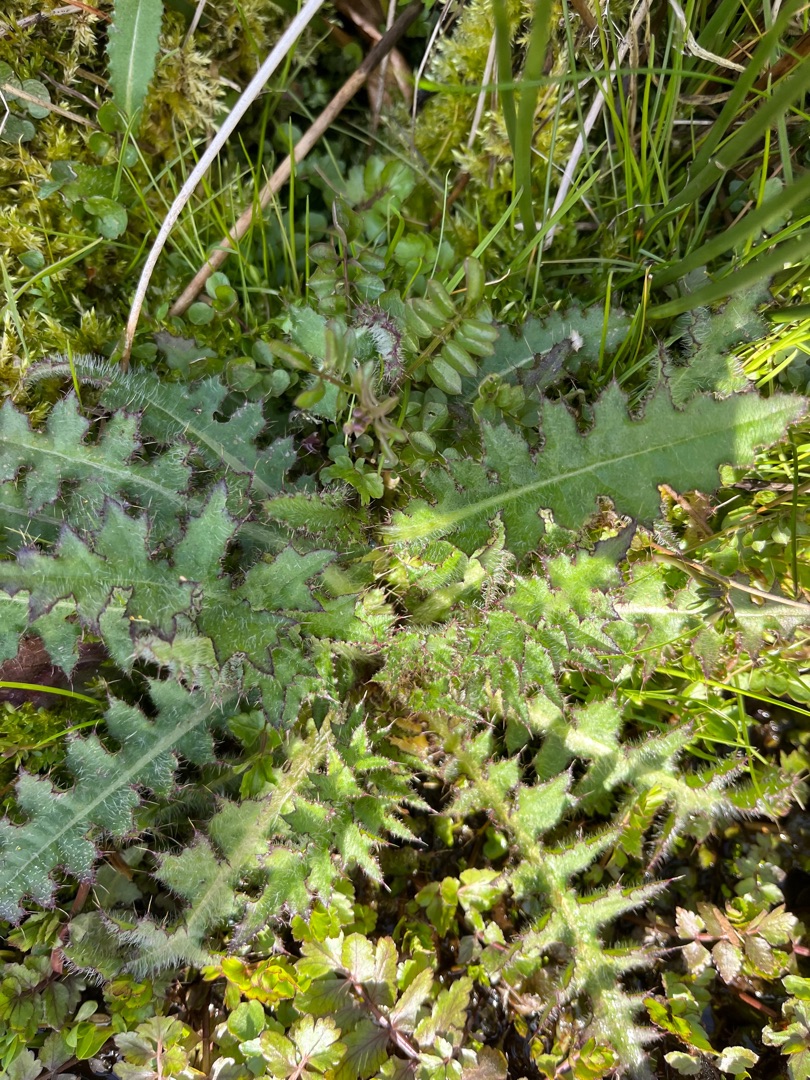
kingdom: Plantae
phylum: Tracheophyta
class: Magnoliopsida
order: Asterales
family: Asteraceae
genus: Cirsium
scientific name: Cirsium palustre
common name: Kær-tidsel
